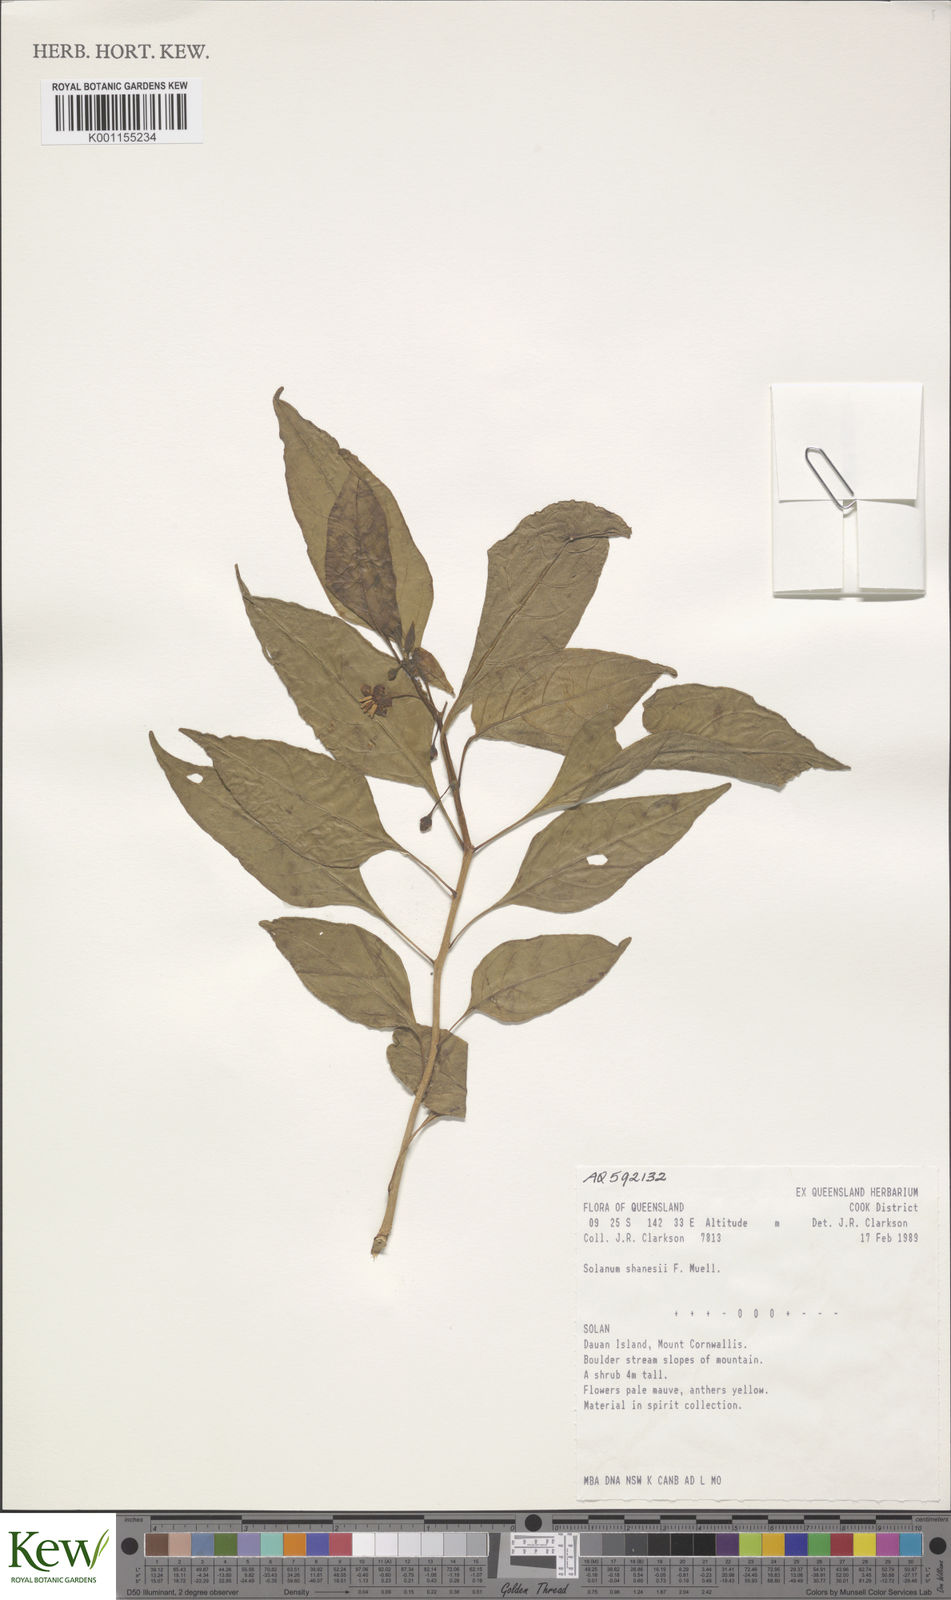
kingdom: Plantae
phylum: Tracheophyta
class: Magnoliopsida
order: Solanales
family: Solanaceae
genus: Lycianthes
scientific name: Lycianthes shanesii
